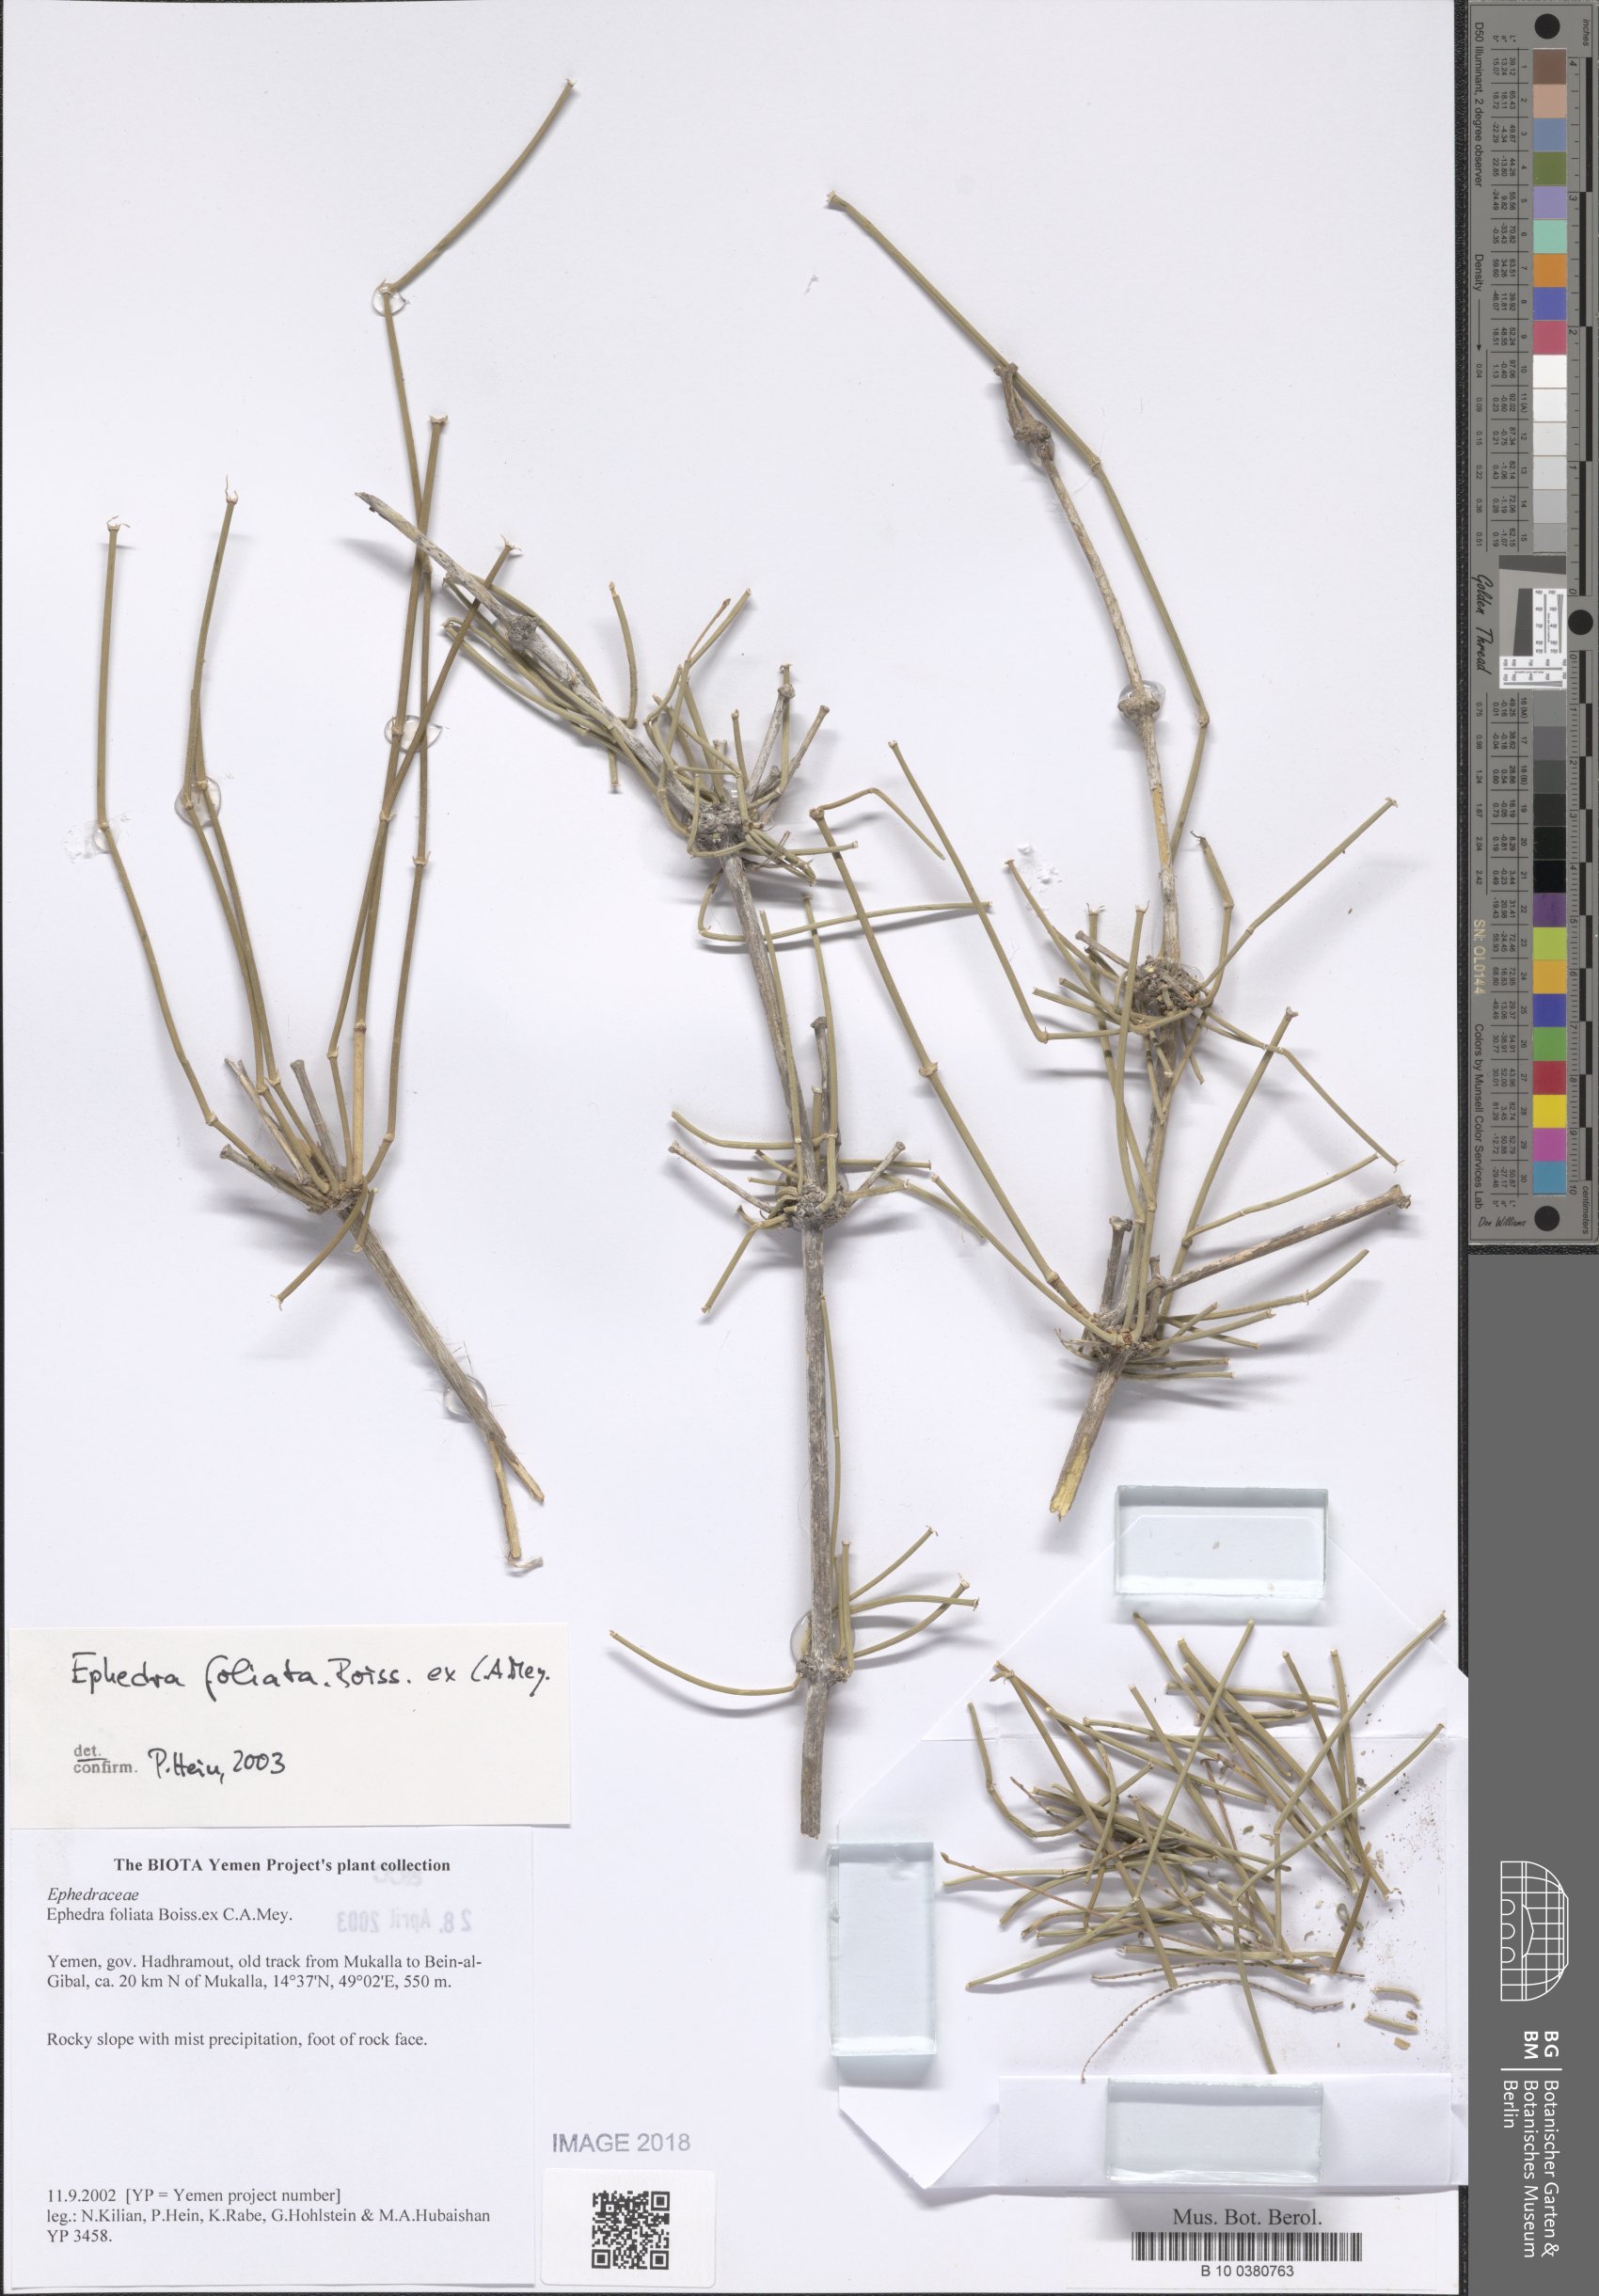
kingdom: Plantae
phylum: Tracheophyta
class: Gnetopsida
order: Ephedrales
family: Ephedraceae
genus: Ephedra
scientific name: Ephedra ciliata
